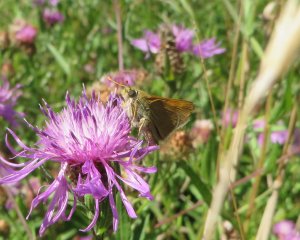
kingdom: Animalia
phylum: Arthropoda
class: Insecta
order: Lepidoptera
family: Hesperiidae
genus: Polites
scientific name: Polites themistocles
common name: Tawny-edged Skipper
